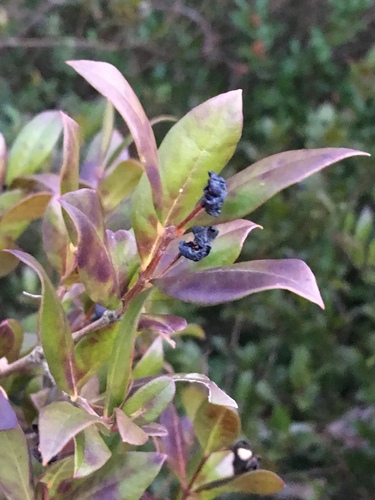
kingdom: Plantae
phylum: Tracheophyta
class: Magnoliopsida
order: Myrtales
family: Myrtaceae
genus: Myrtus
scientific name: Myrtus communis
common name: Myrtle
